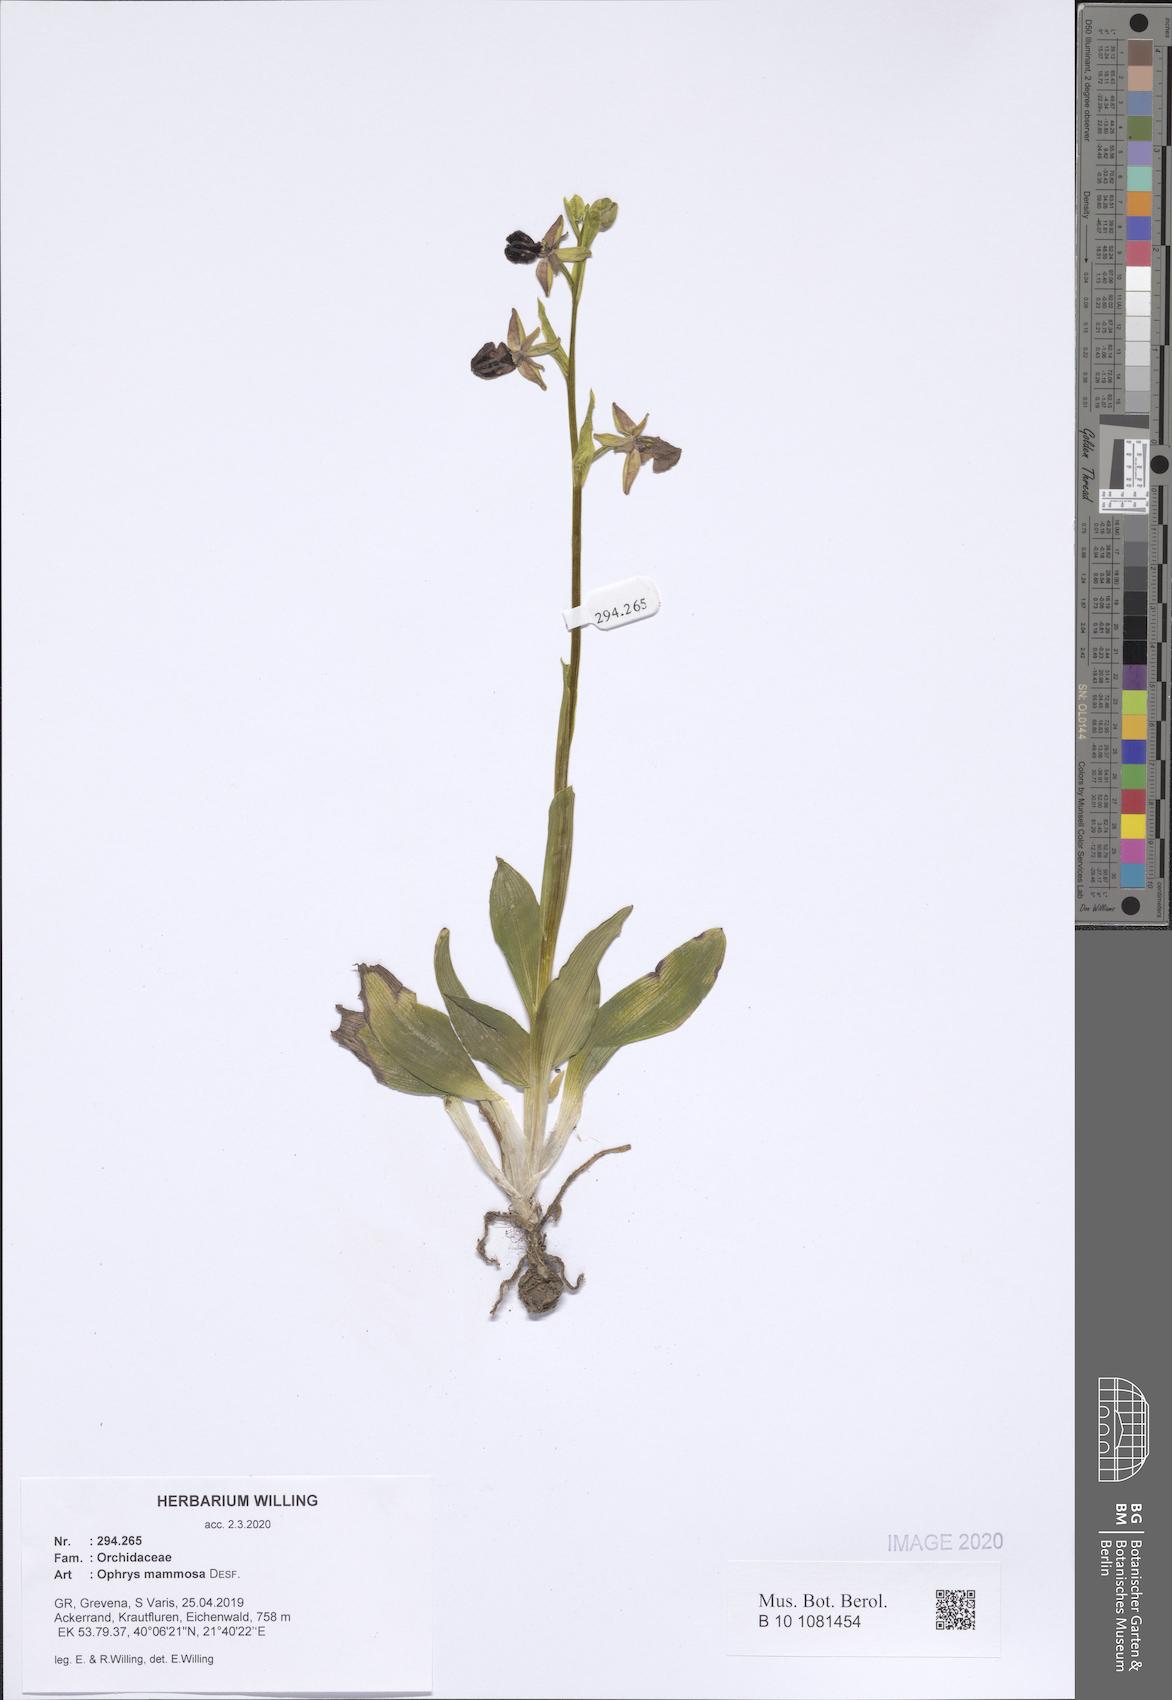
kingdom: Plantae
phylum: Tracheophyta
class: Liliopsida
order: Asparagales
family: Orchidaceae
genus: Ophrys
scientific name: Ophrys sphegodes
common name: Early spider-orchid
